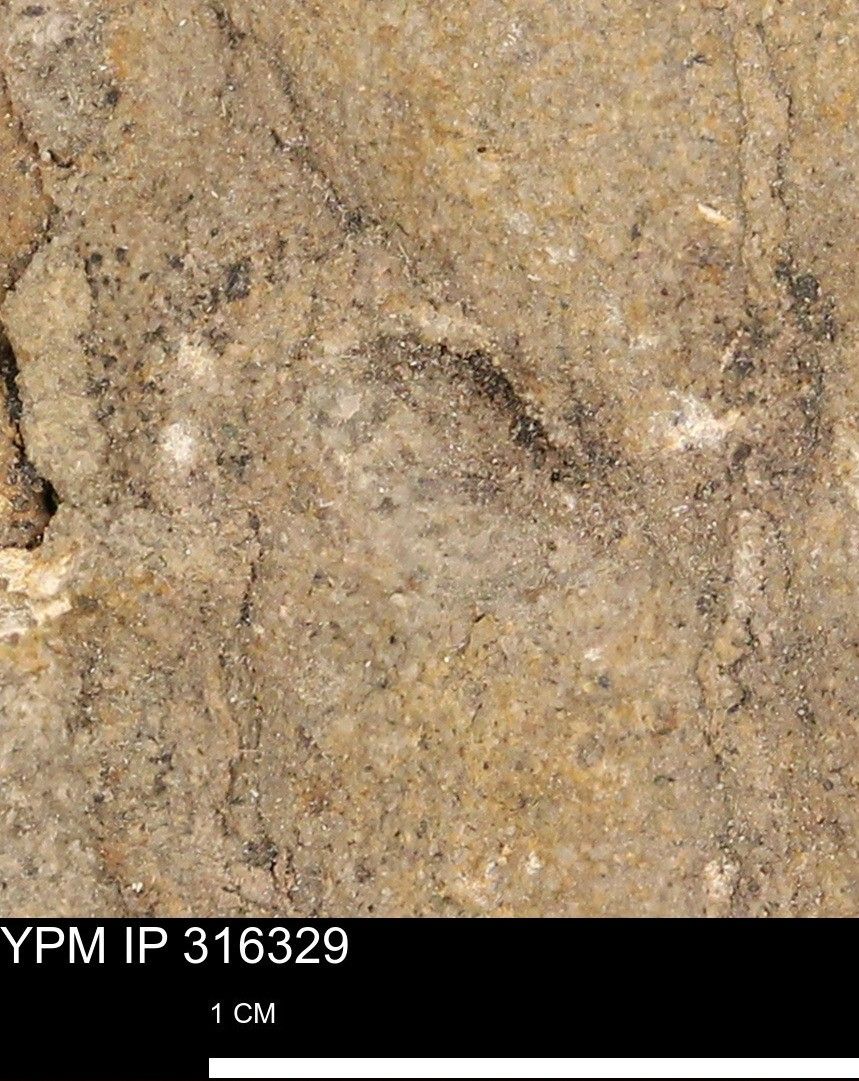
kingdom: Animalia
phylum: Mollusca
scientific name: Mollusca
